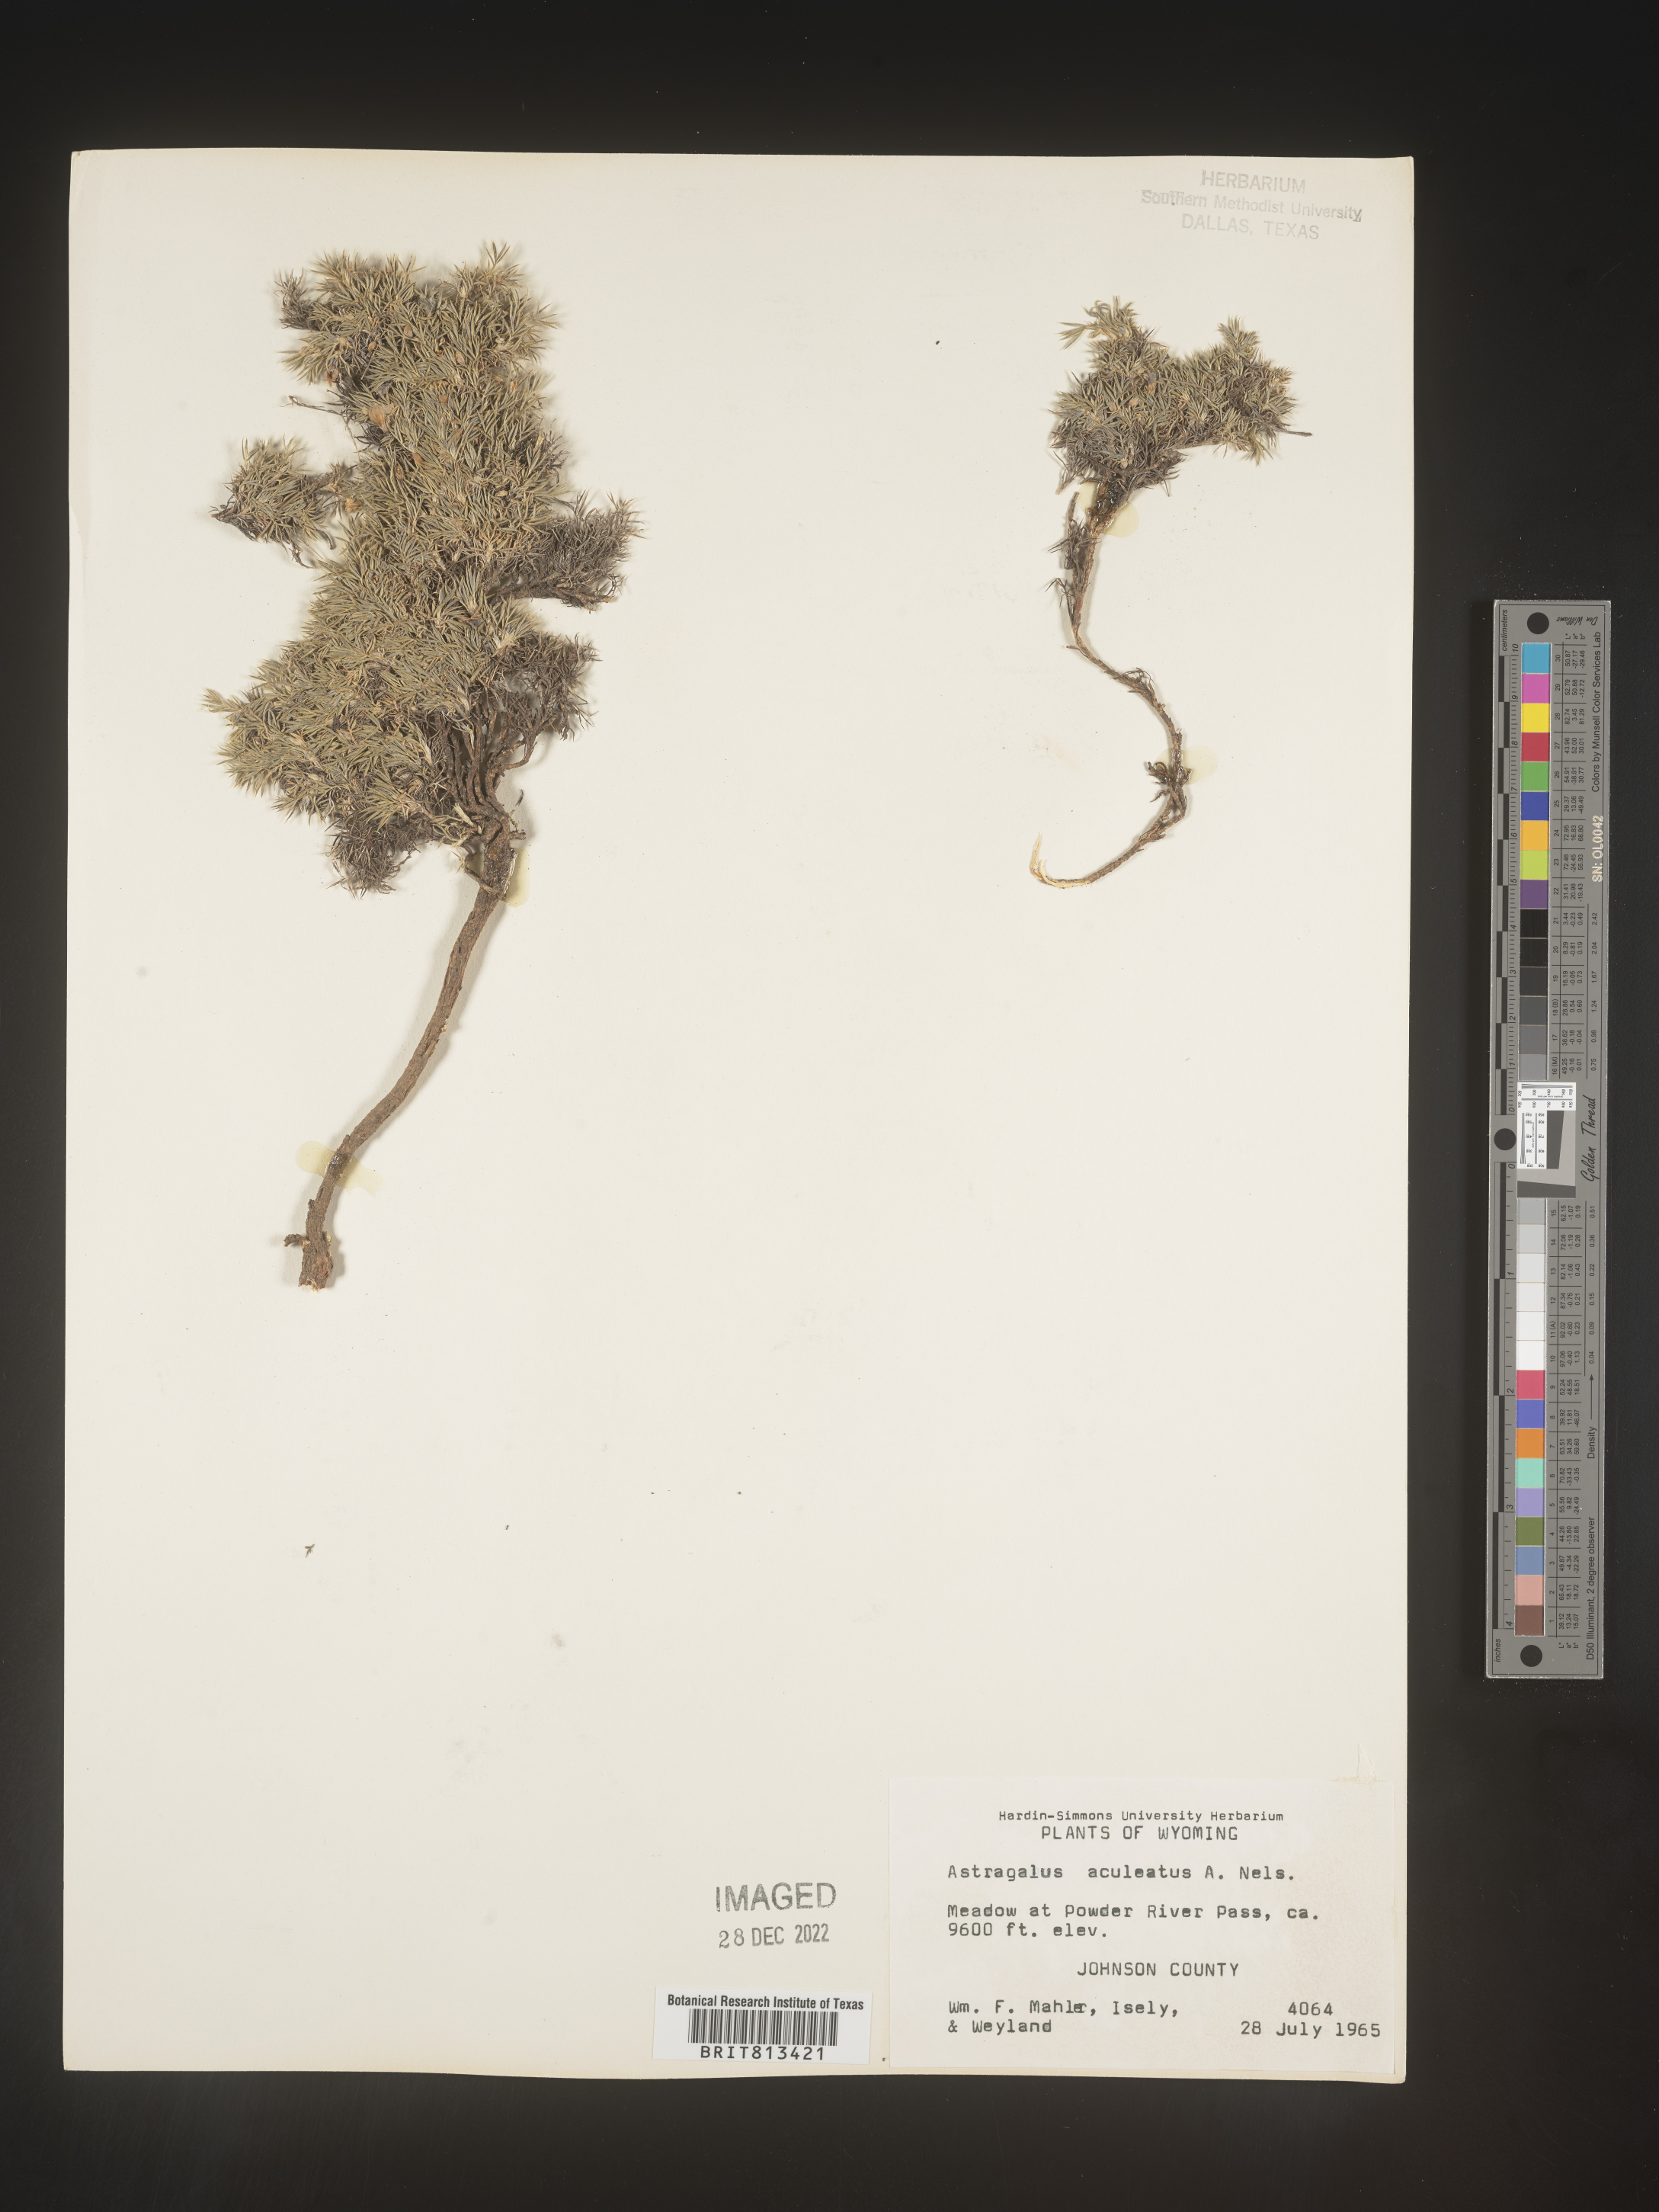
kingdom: Plantae
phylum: Tracheophyta
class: Magnoliopsida
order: Fabales
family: Fabaceae
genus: Astragalus
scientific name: Astragalus
